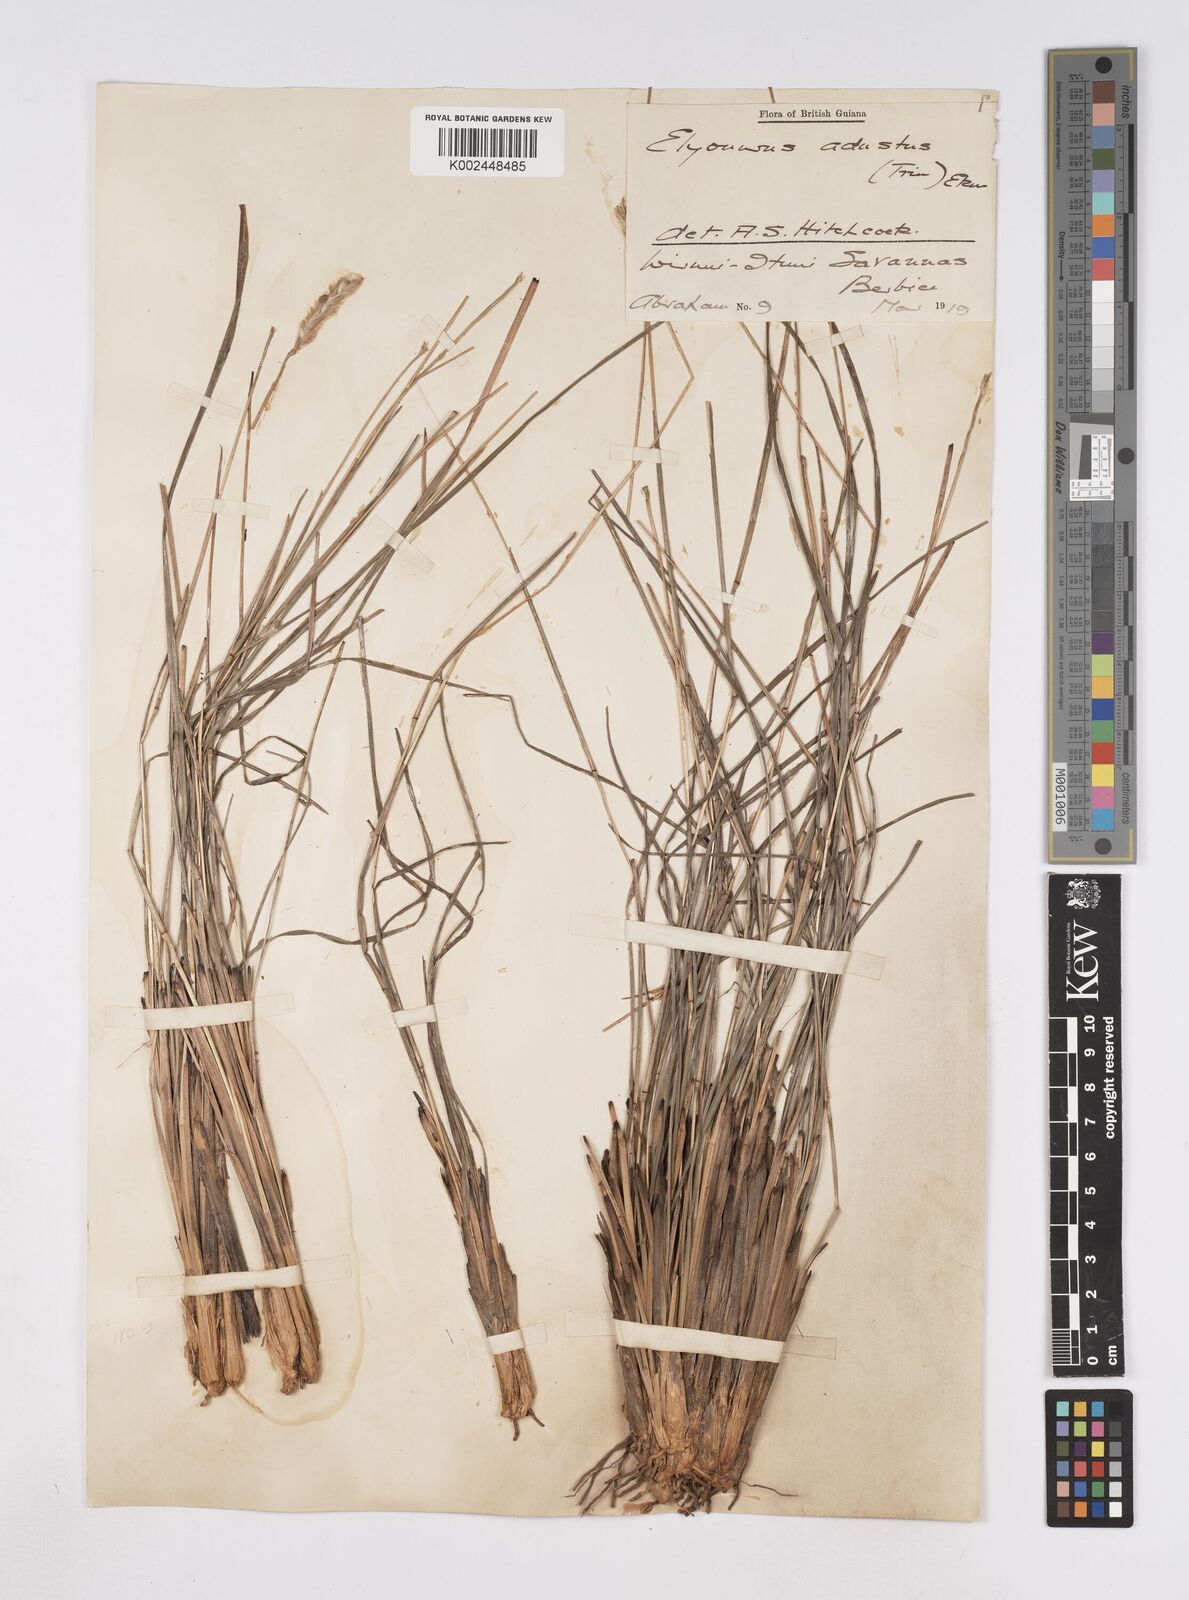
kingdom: Plantae
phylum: Tracheophyta
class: Liliopsida
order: Poales
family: Poaceae
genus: Elionurus
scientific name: Elionurus planifolius
